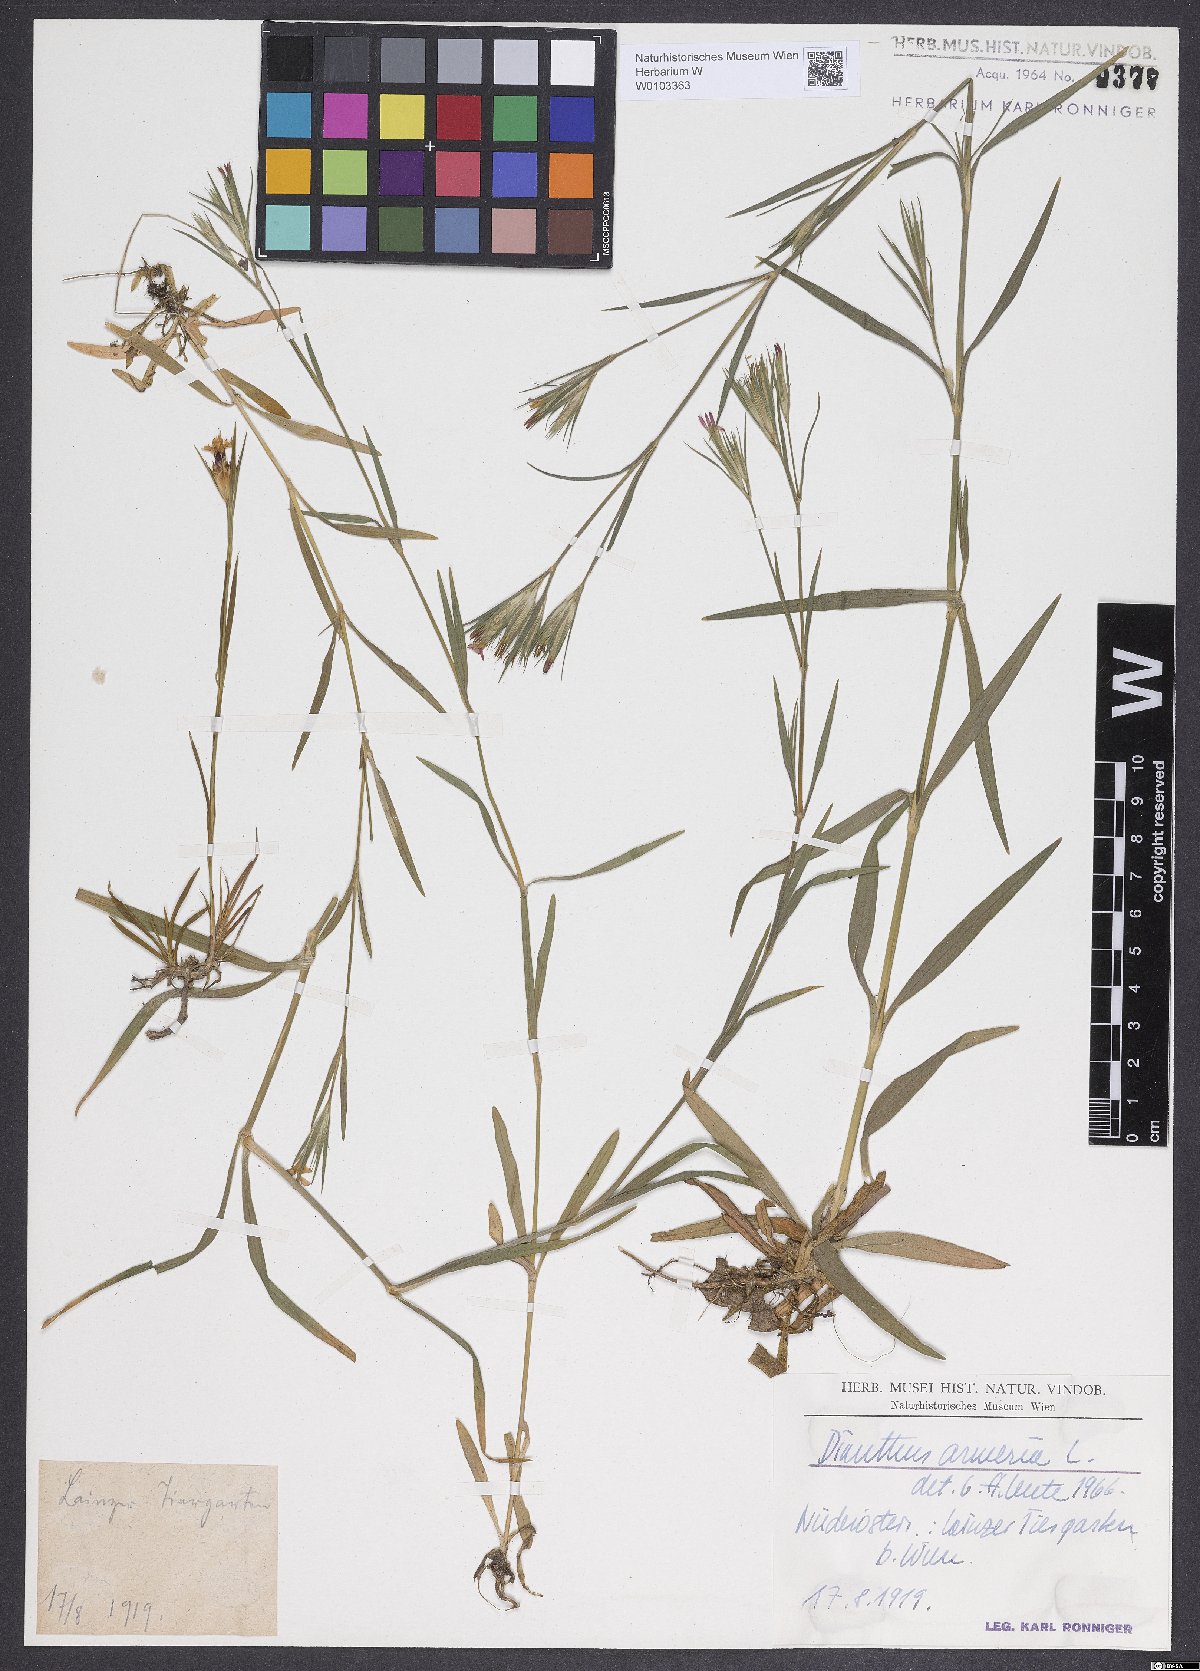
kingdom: Plantae
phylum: Tracheophyta
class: Magnoliopsida
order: Caryophyllales
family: Caryophyllaceae
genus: Dianthus
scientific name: Dianthus armeria
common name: Deptford pink
